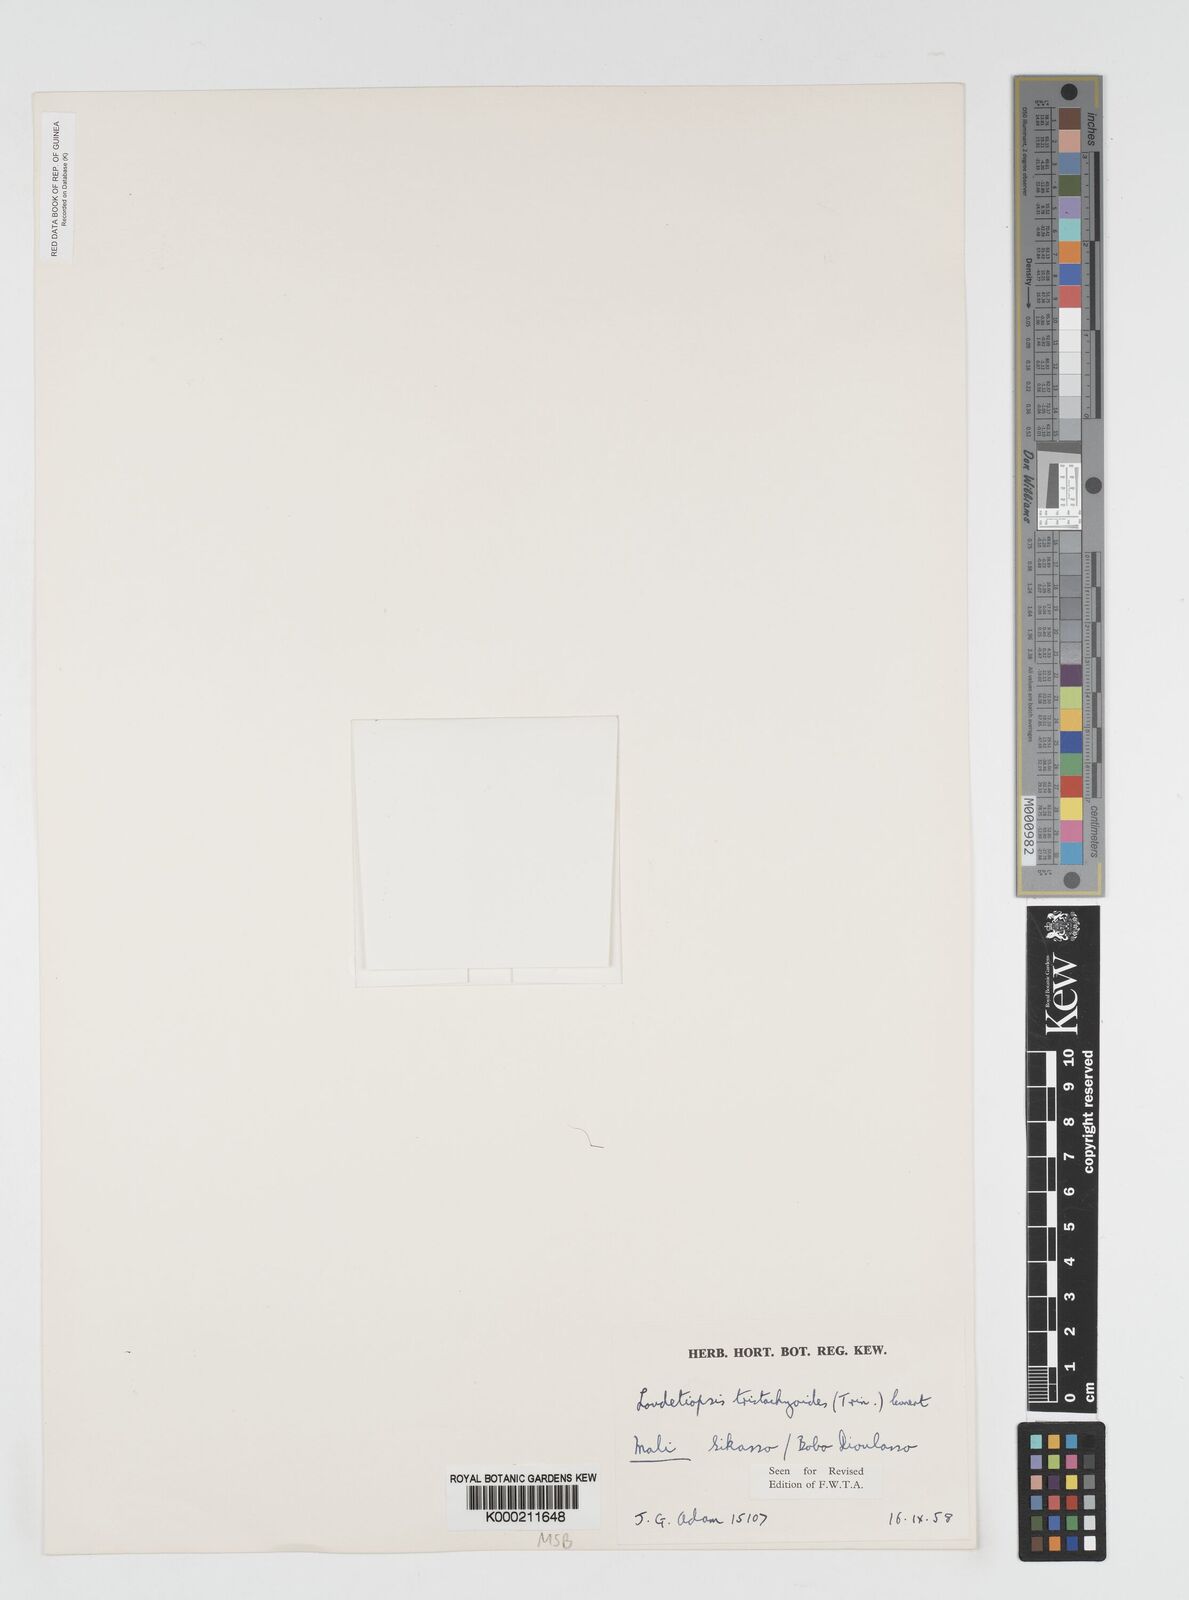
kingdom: Plantae
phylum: Tracheophyta
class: Liliopsida
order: Poales
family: Poaceae
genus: Dilophotriche
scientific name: Dilophotriche
